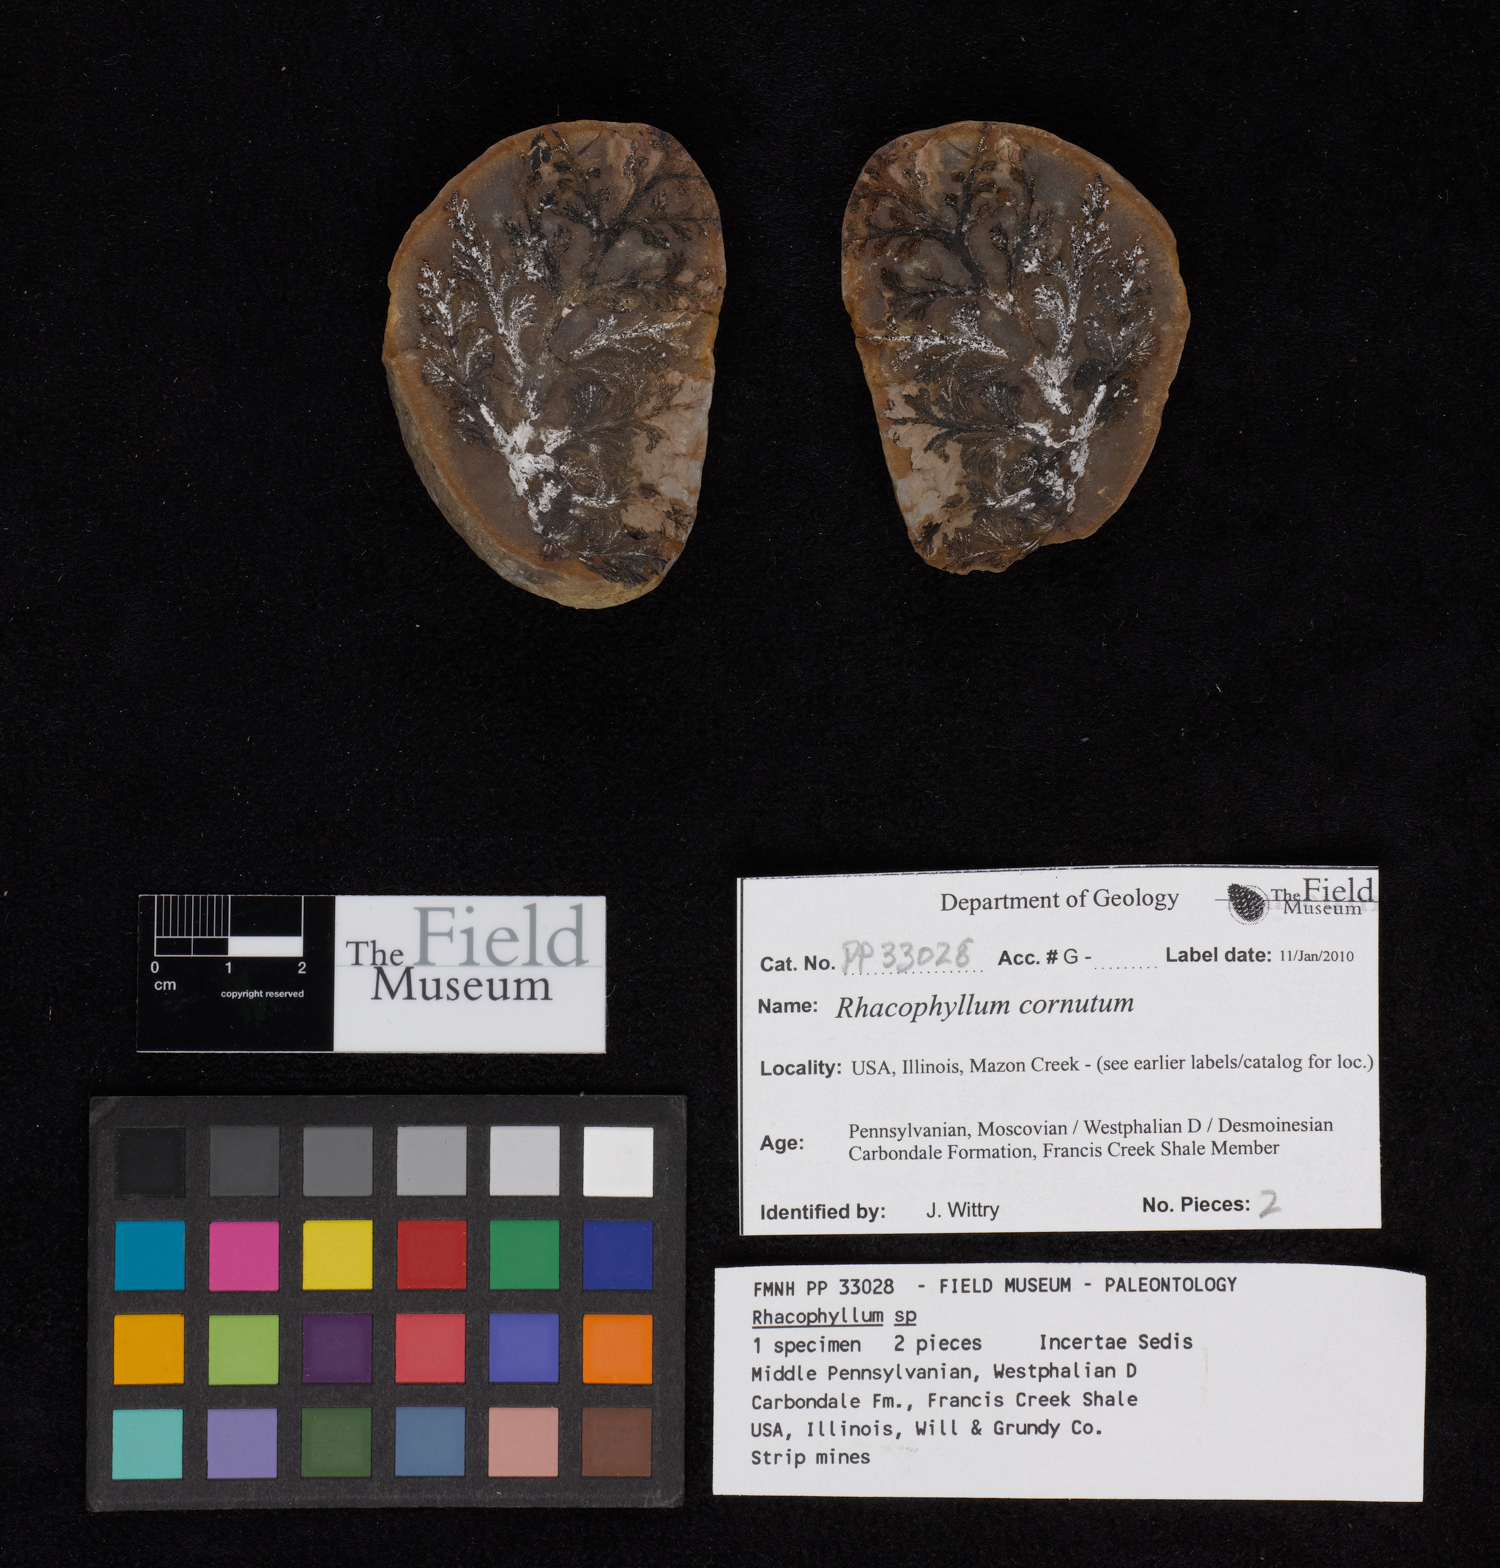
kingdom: Plantae
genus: Rhacophyllum
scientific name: Rhacophyllum
